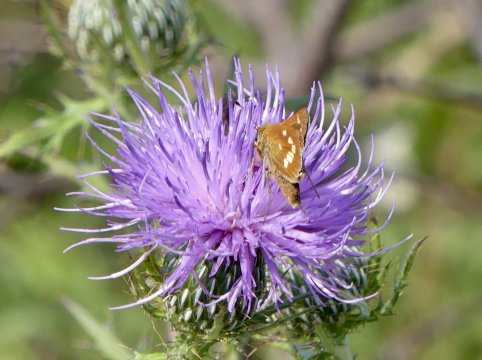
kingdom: Animalia
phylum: Arthropoda
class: Insecta
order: Lepidoptera
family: Hesperiidae
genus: Hesperia
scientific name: Hesperia leonardus
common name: Leonard's Skipper
